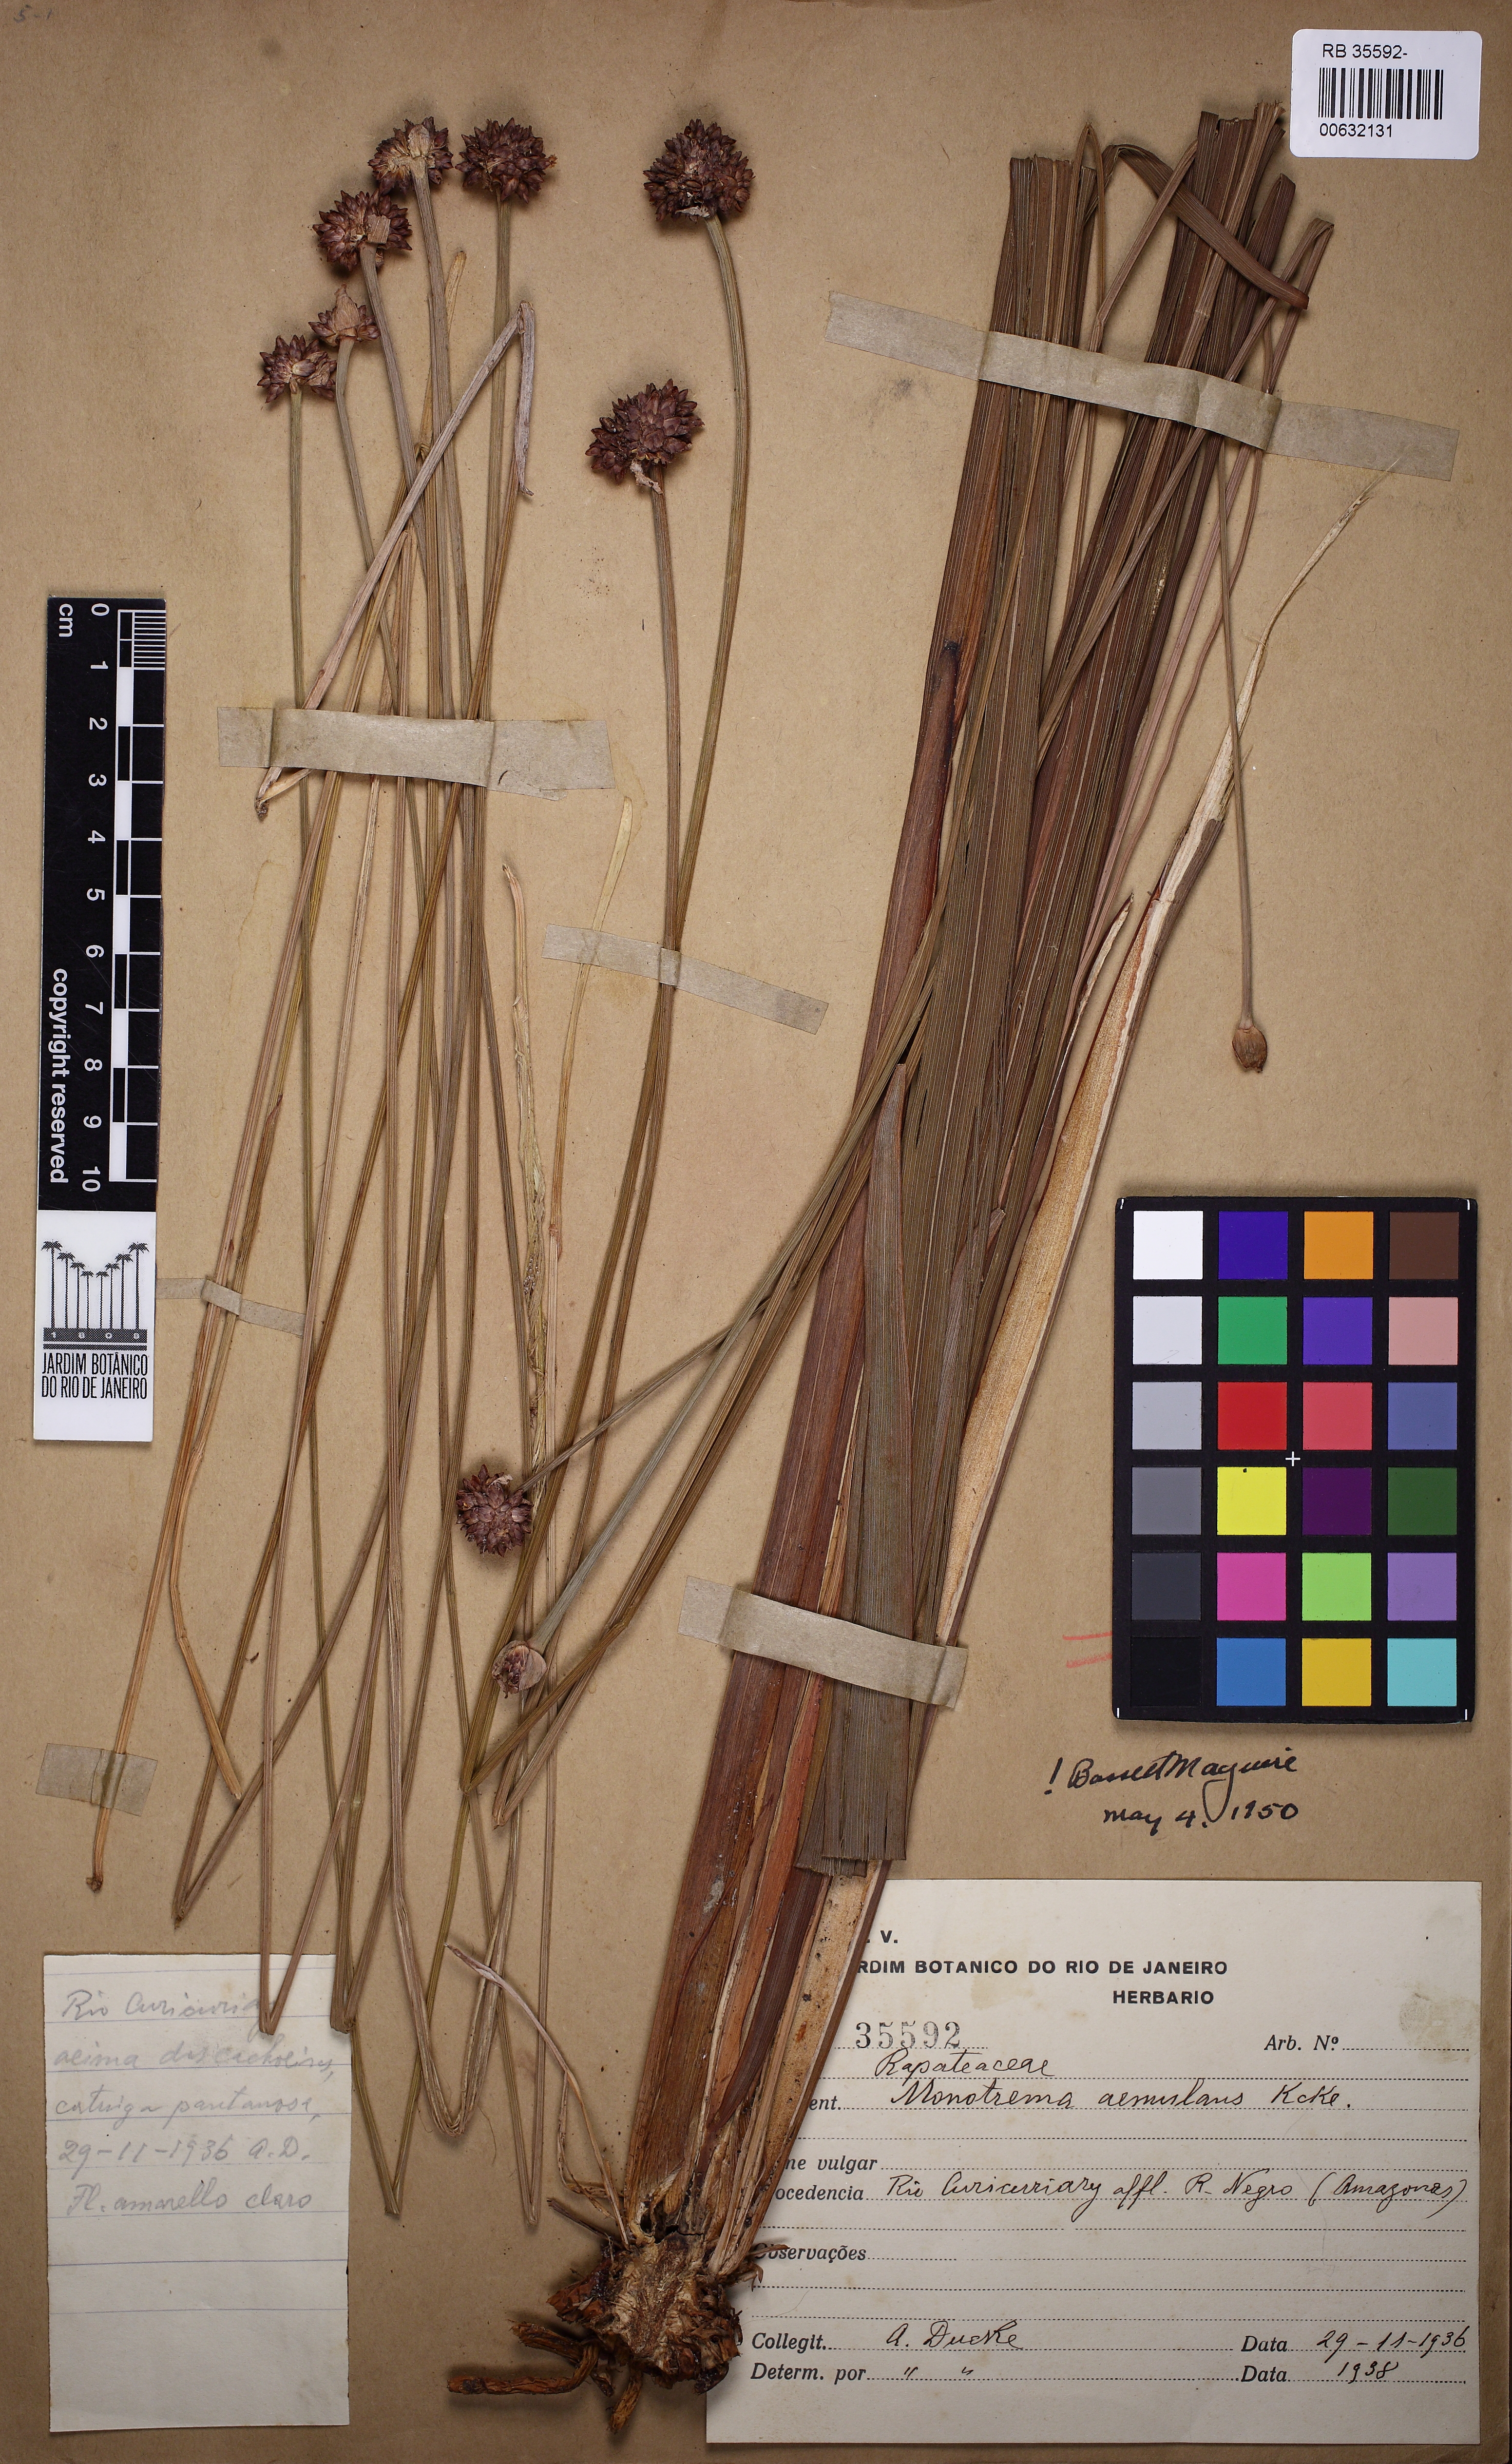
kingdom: Plantae
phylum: Tracheophyta
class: Liliopsida
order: Poales
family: Rapateaceae
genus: Monotrema
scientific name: Monotrema aemulans
